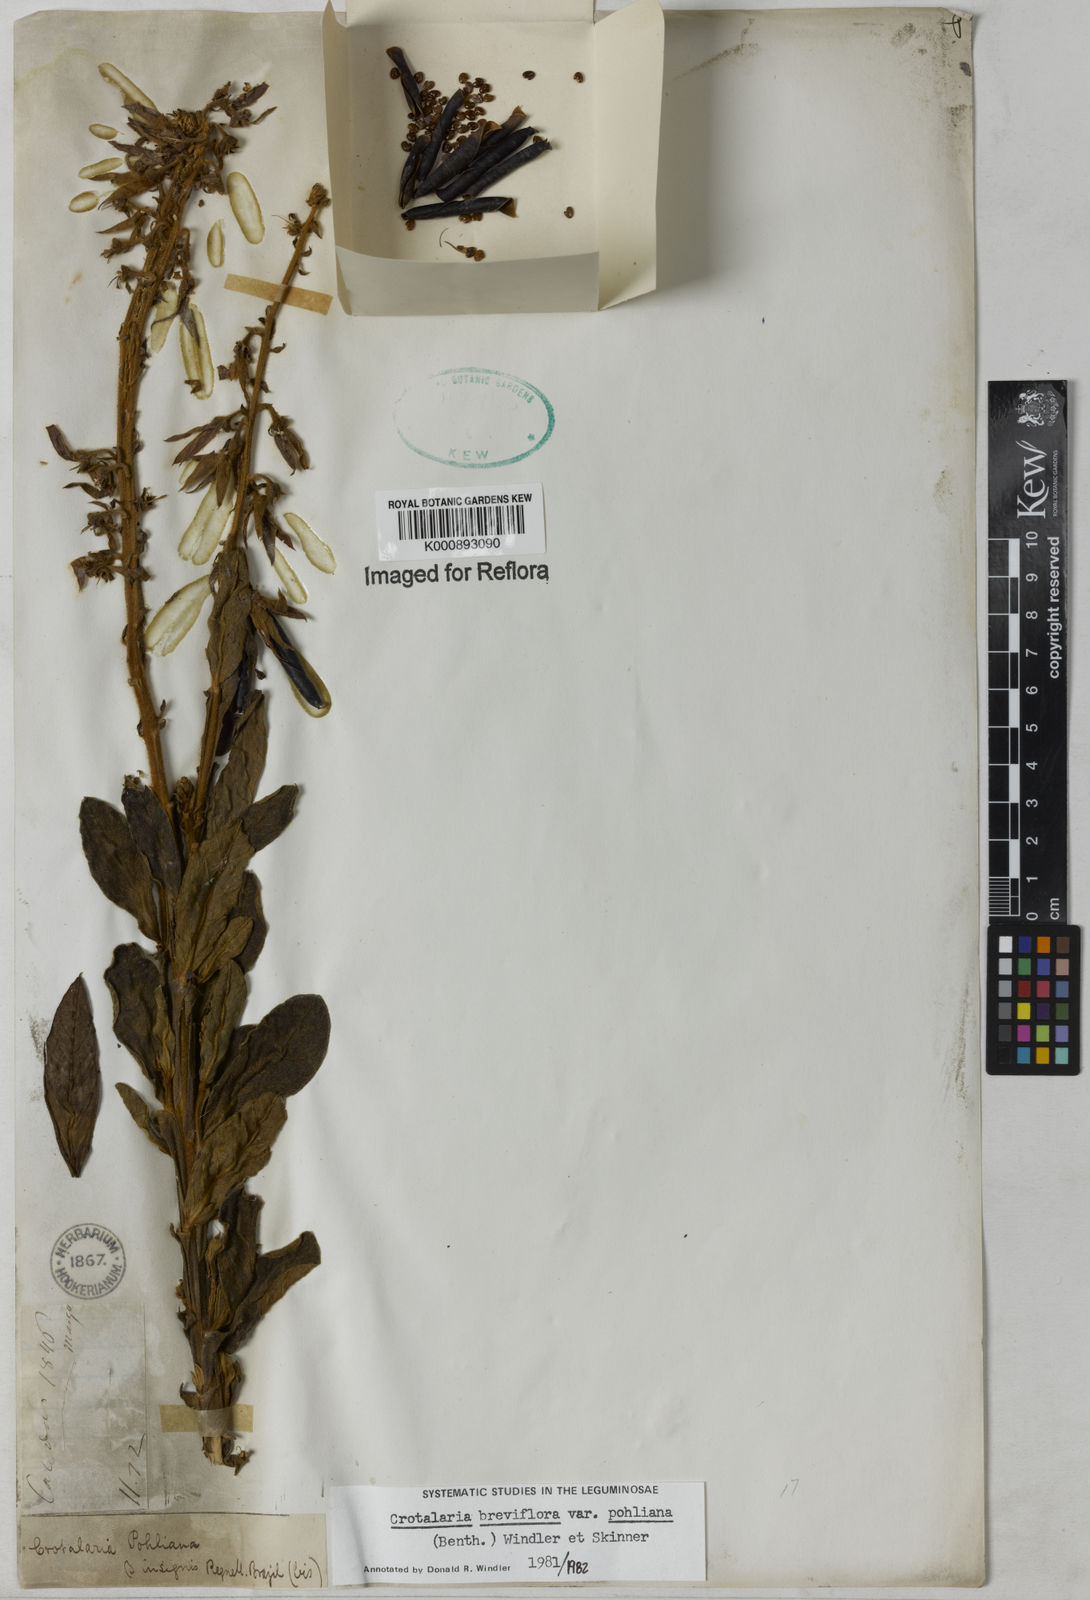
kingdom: Plantae
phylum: Tracheophyta
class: Magnoliopsida
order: Fabales
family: Fabaceae
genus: Crotalaria
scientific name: Crotalaria subdecurrens
